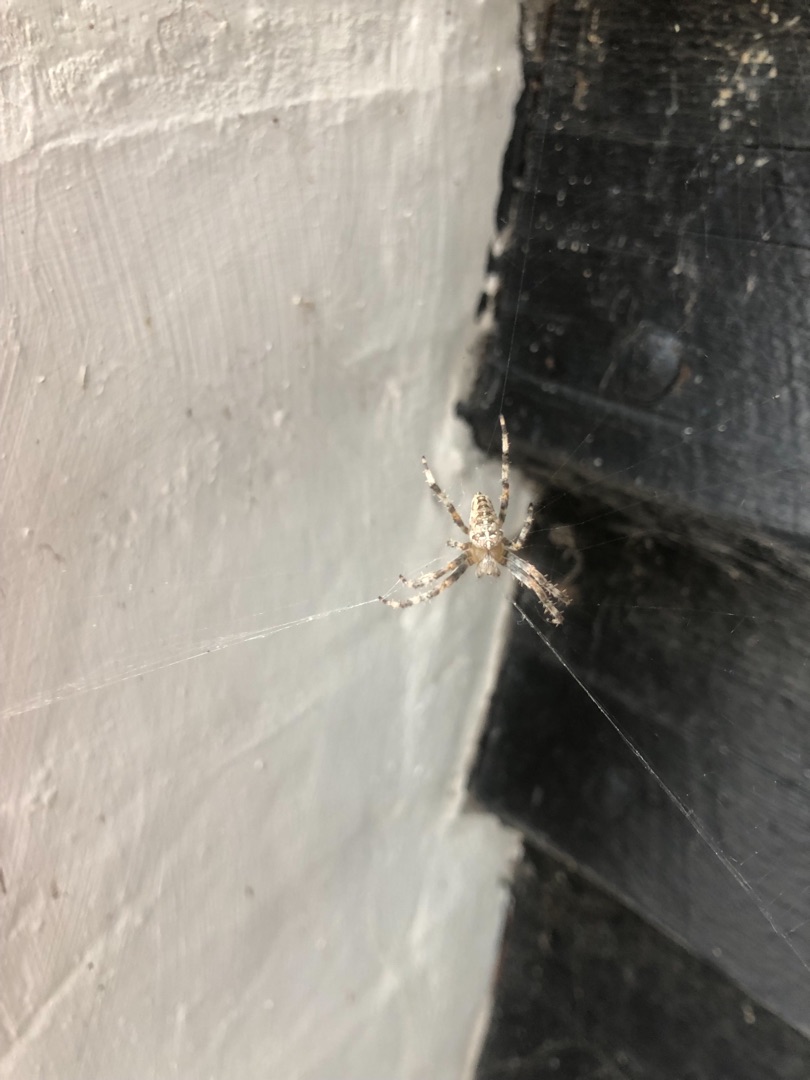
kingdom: Animalia
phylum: Arthropoda
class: Arachnida
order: Araneae
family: Araneidae
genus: Araneus
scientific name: Araneus diadematus
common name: Korsedderkop
